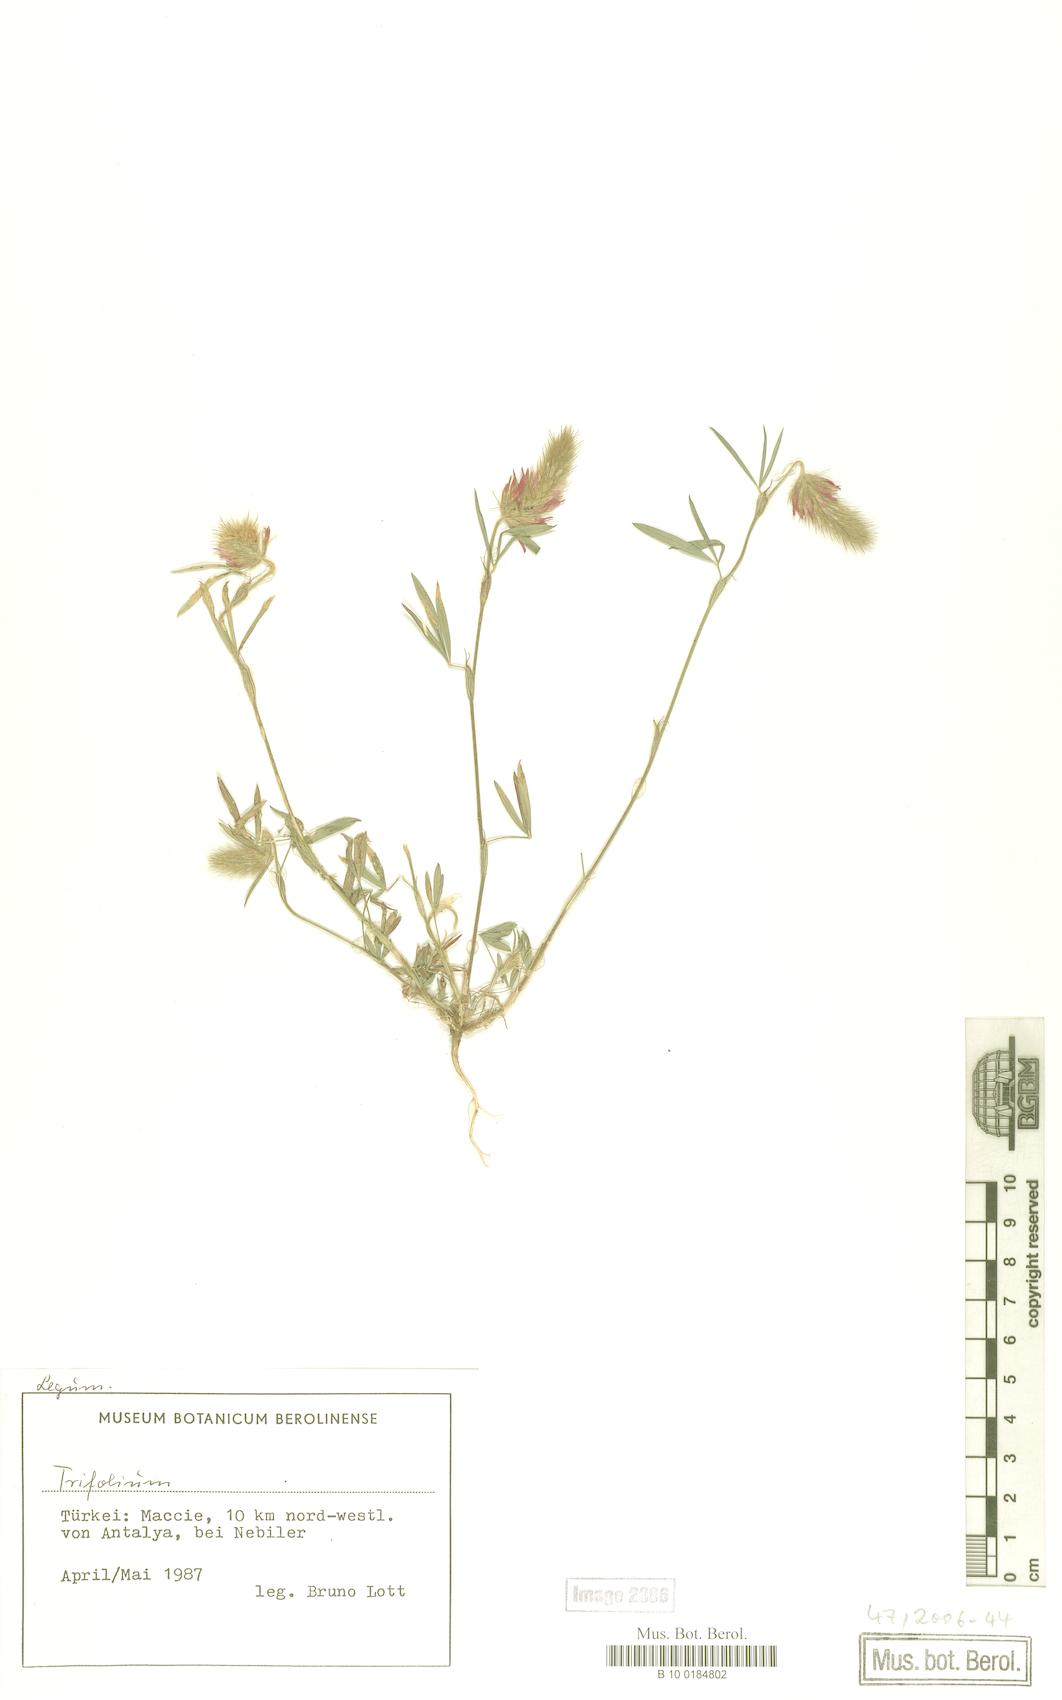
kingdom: Plantae
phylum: Tracheophyta
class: Magnoliopsida
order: Fabales
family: Fabaceae
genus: Trifolium
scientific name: Trifolium
